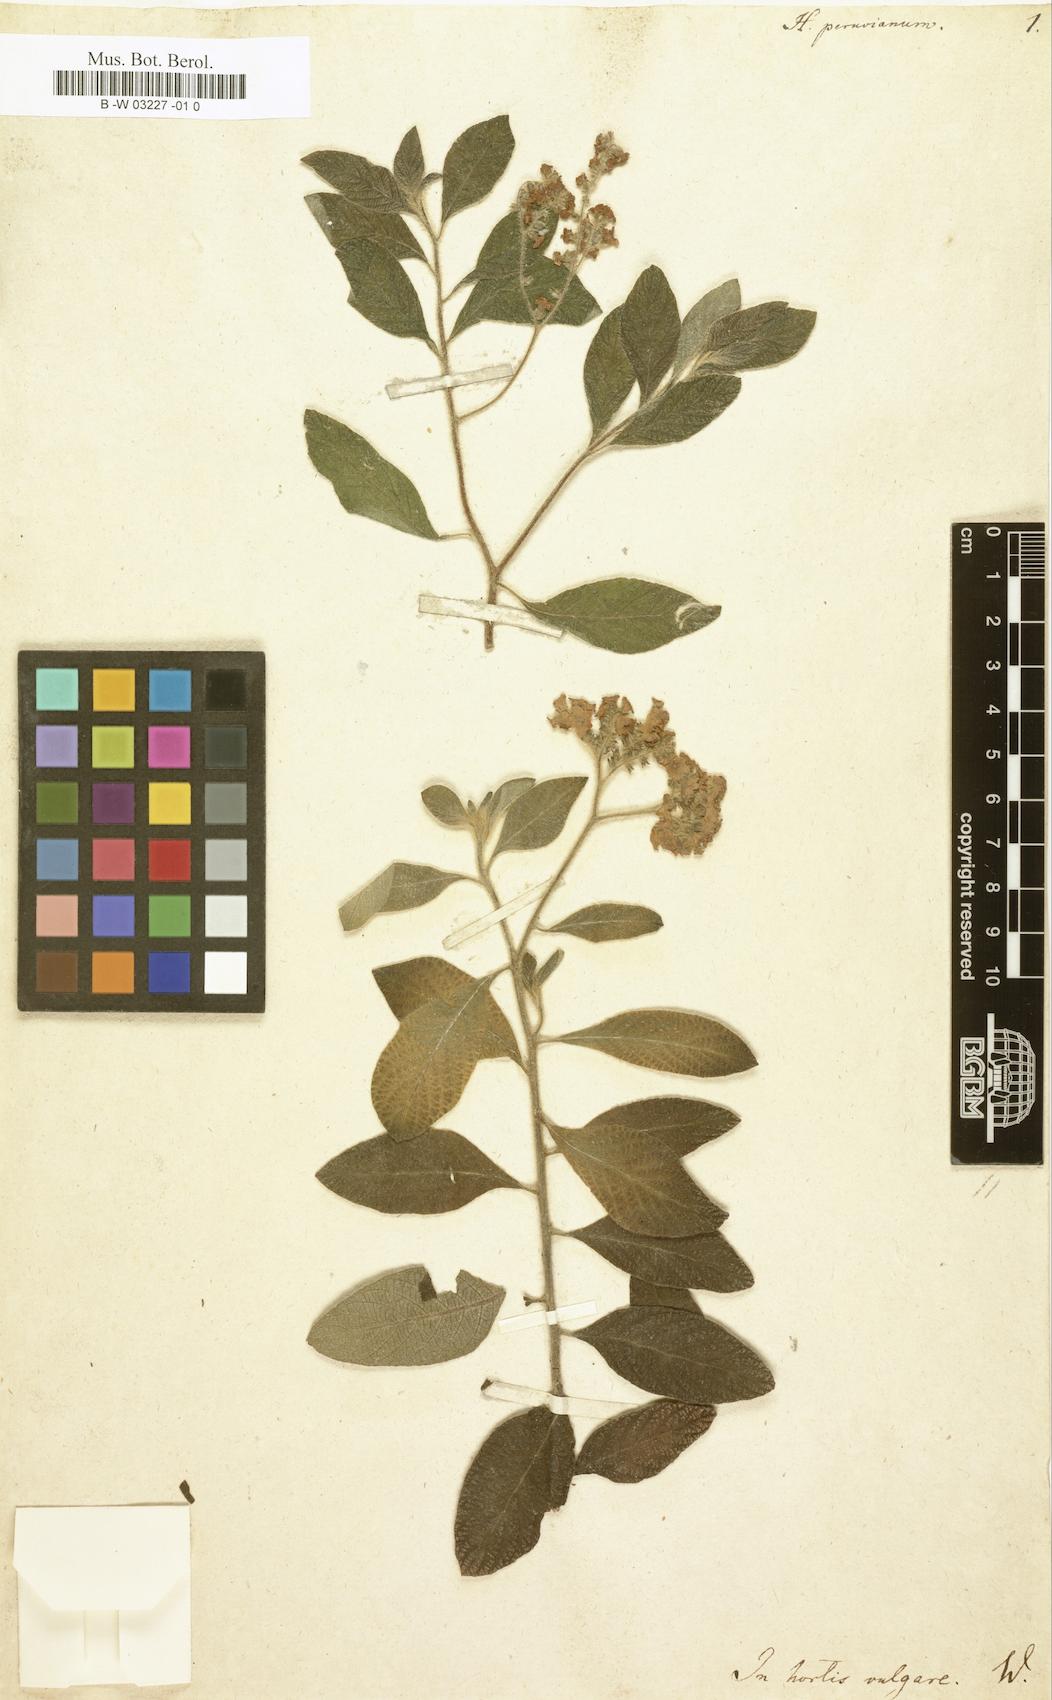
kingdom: Plantae
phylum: Tracheophyta
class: Magnoliopsida
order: Boraginales
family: Heliotropiaceae
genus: Heliotropium
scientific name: Heliotropium arborescens
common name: Cherry-pie
